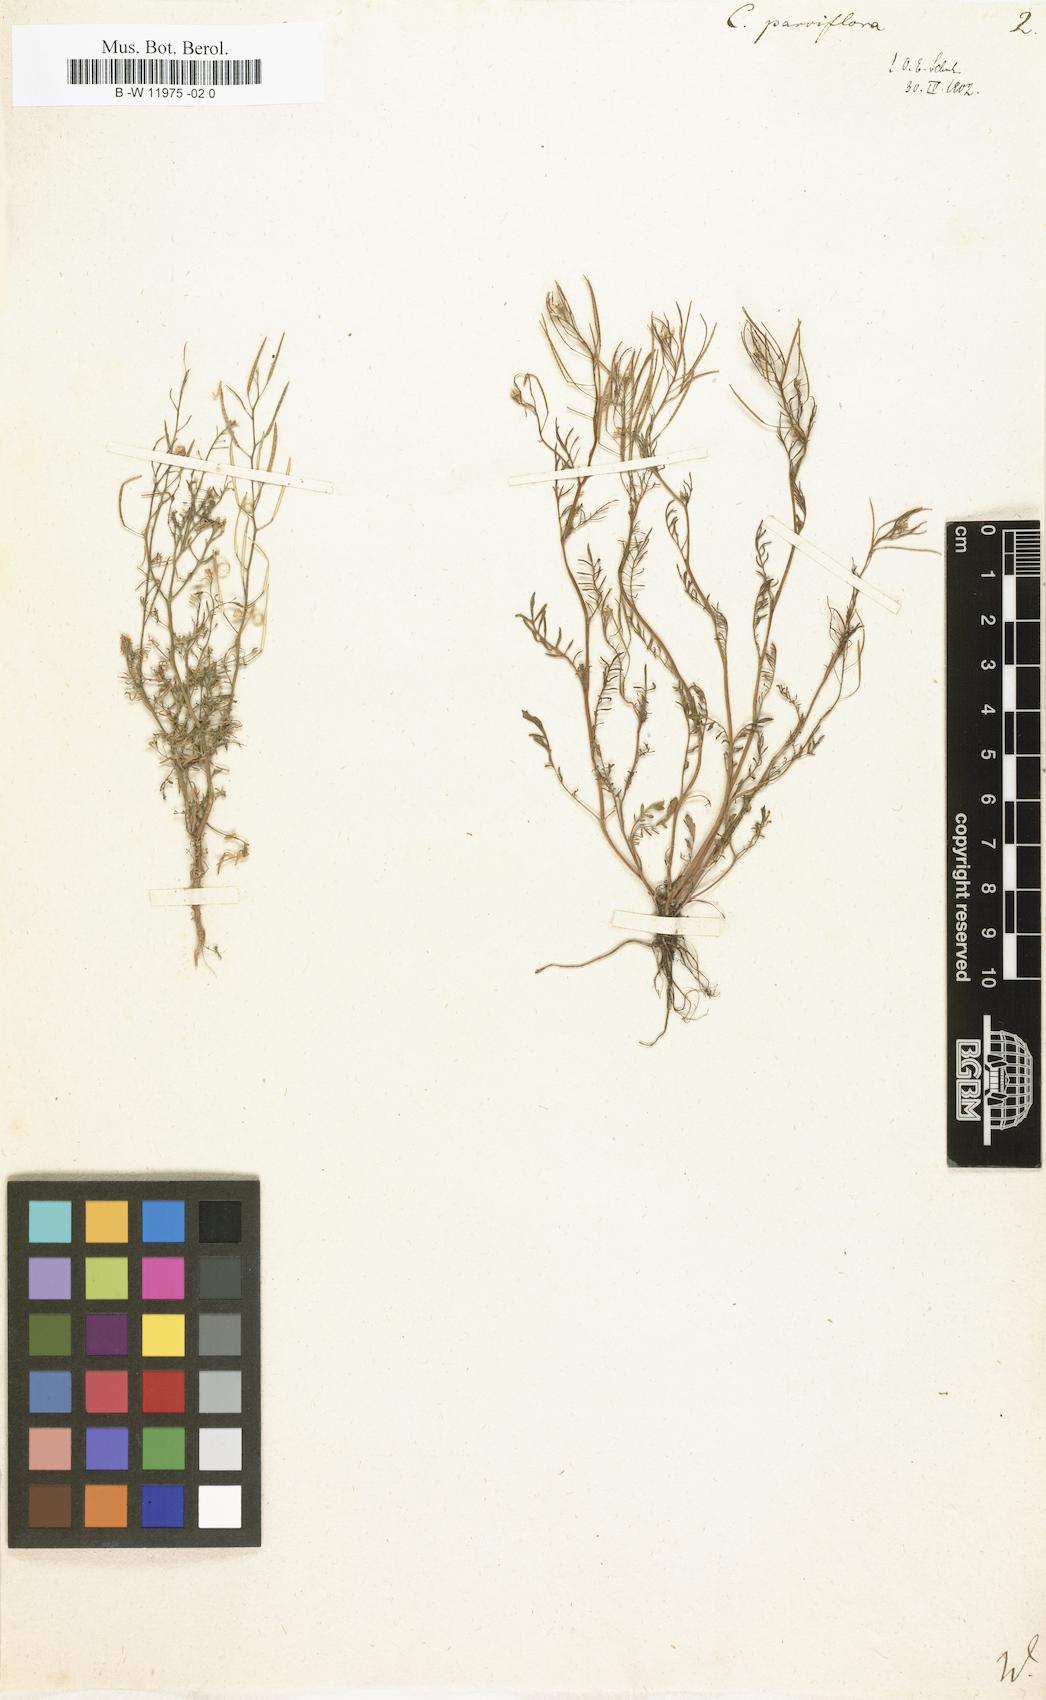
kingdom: Plantae
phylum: Tracheophyta
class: Magnoliopsida
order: Brassicales
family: Brassicaceae
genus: Cardamine
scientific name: Cardamine parviflora
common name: Sand bittercress
